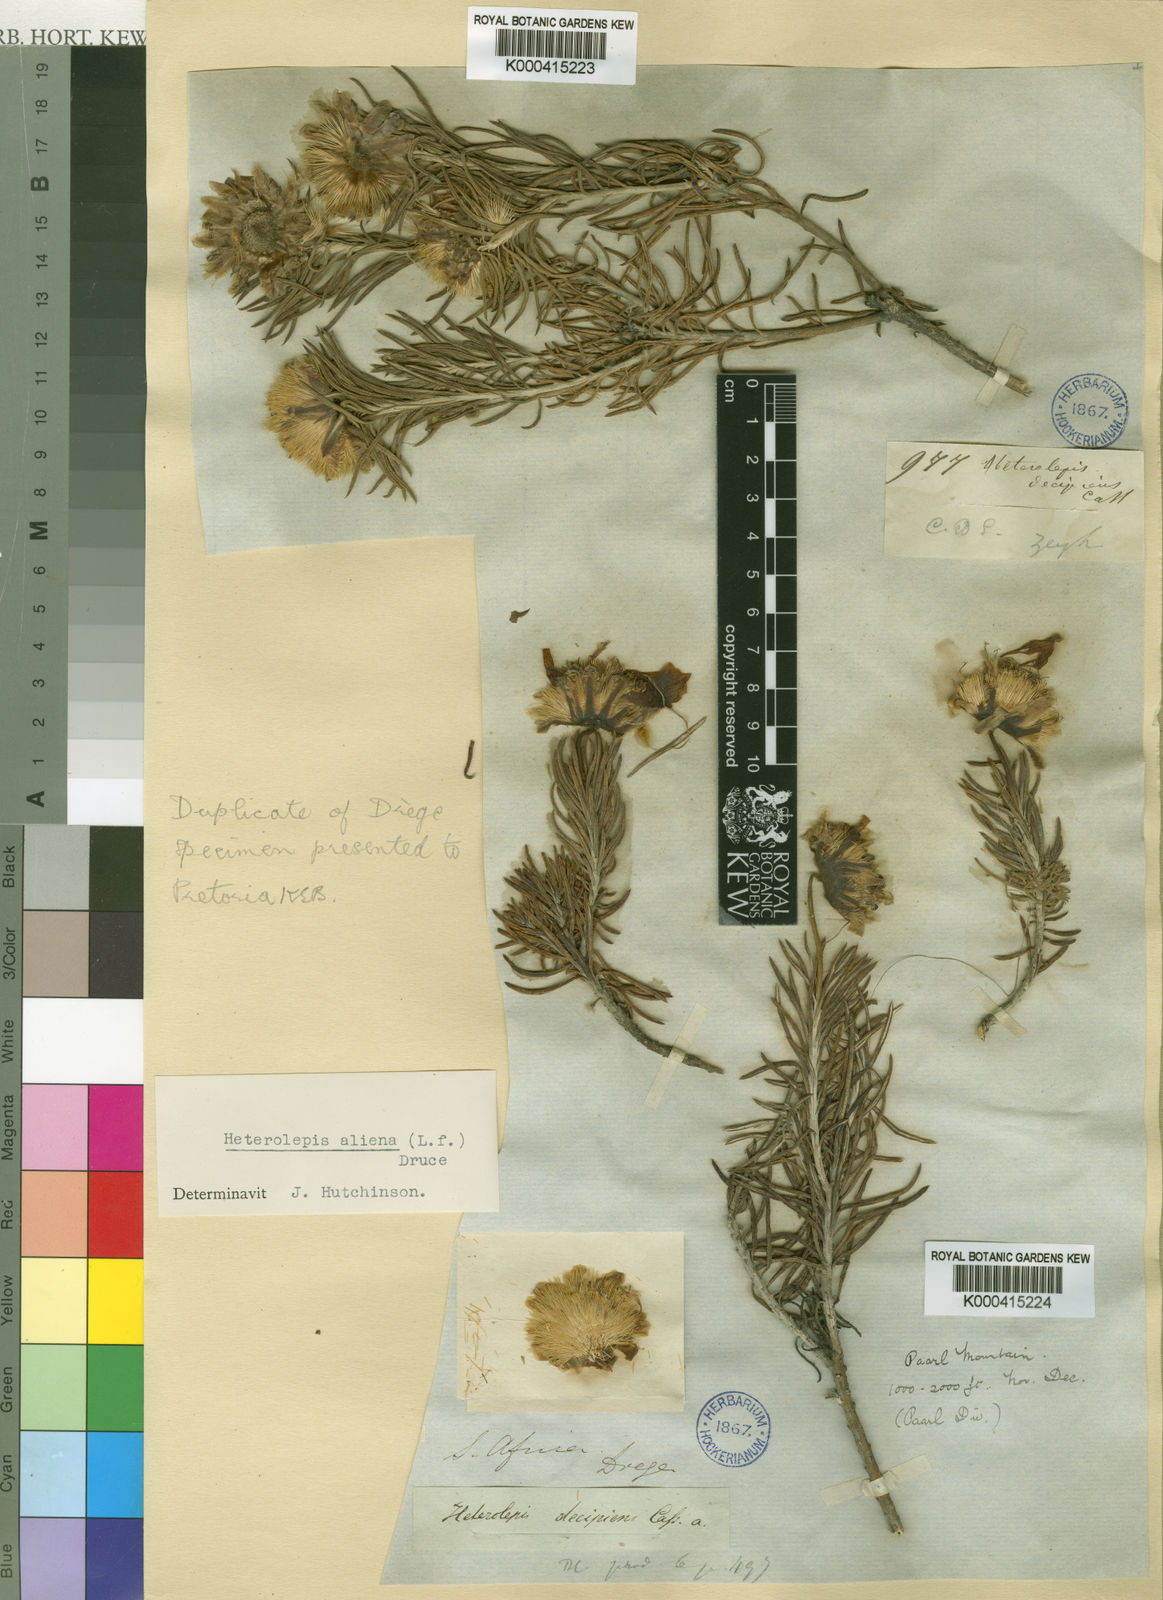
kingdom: Plantae
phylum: Tracheophyta
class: Magnoliopsida
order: Asterales
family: Asteraceae
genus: Heterolepis
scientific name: Heterolepis aliena
